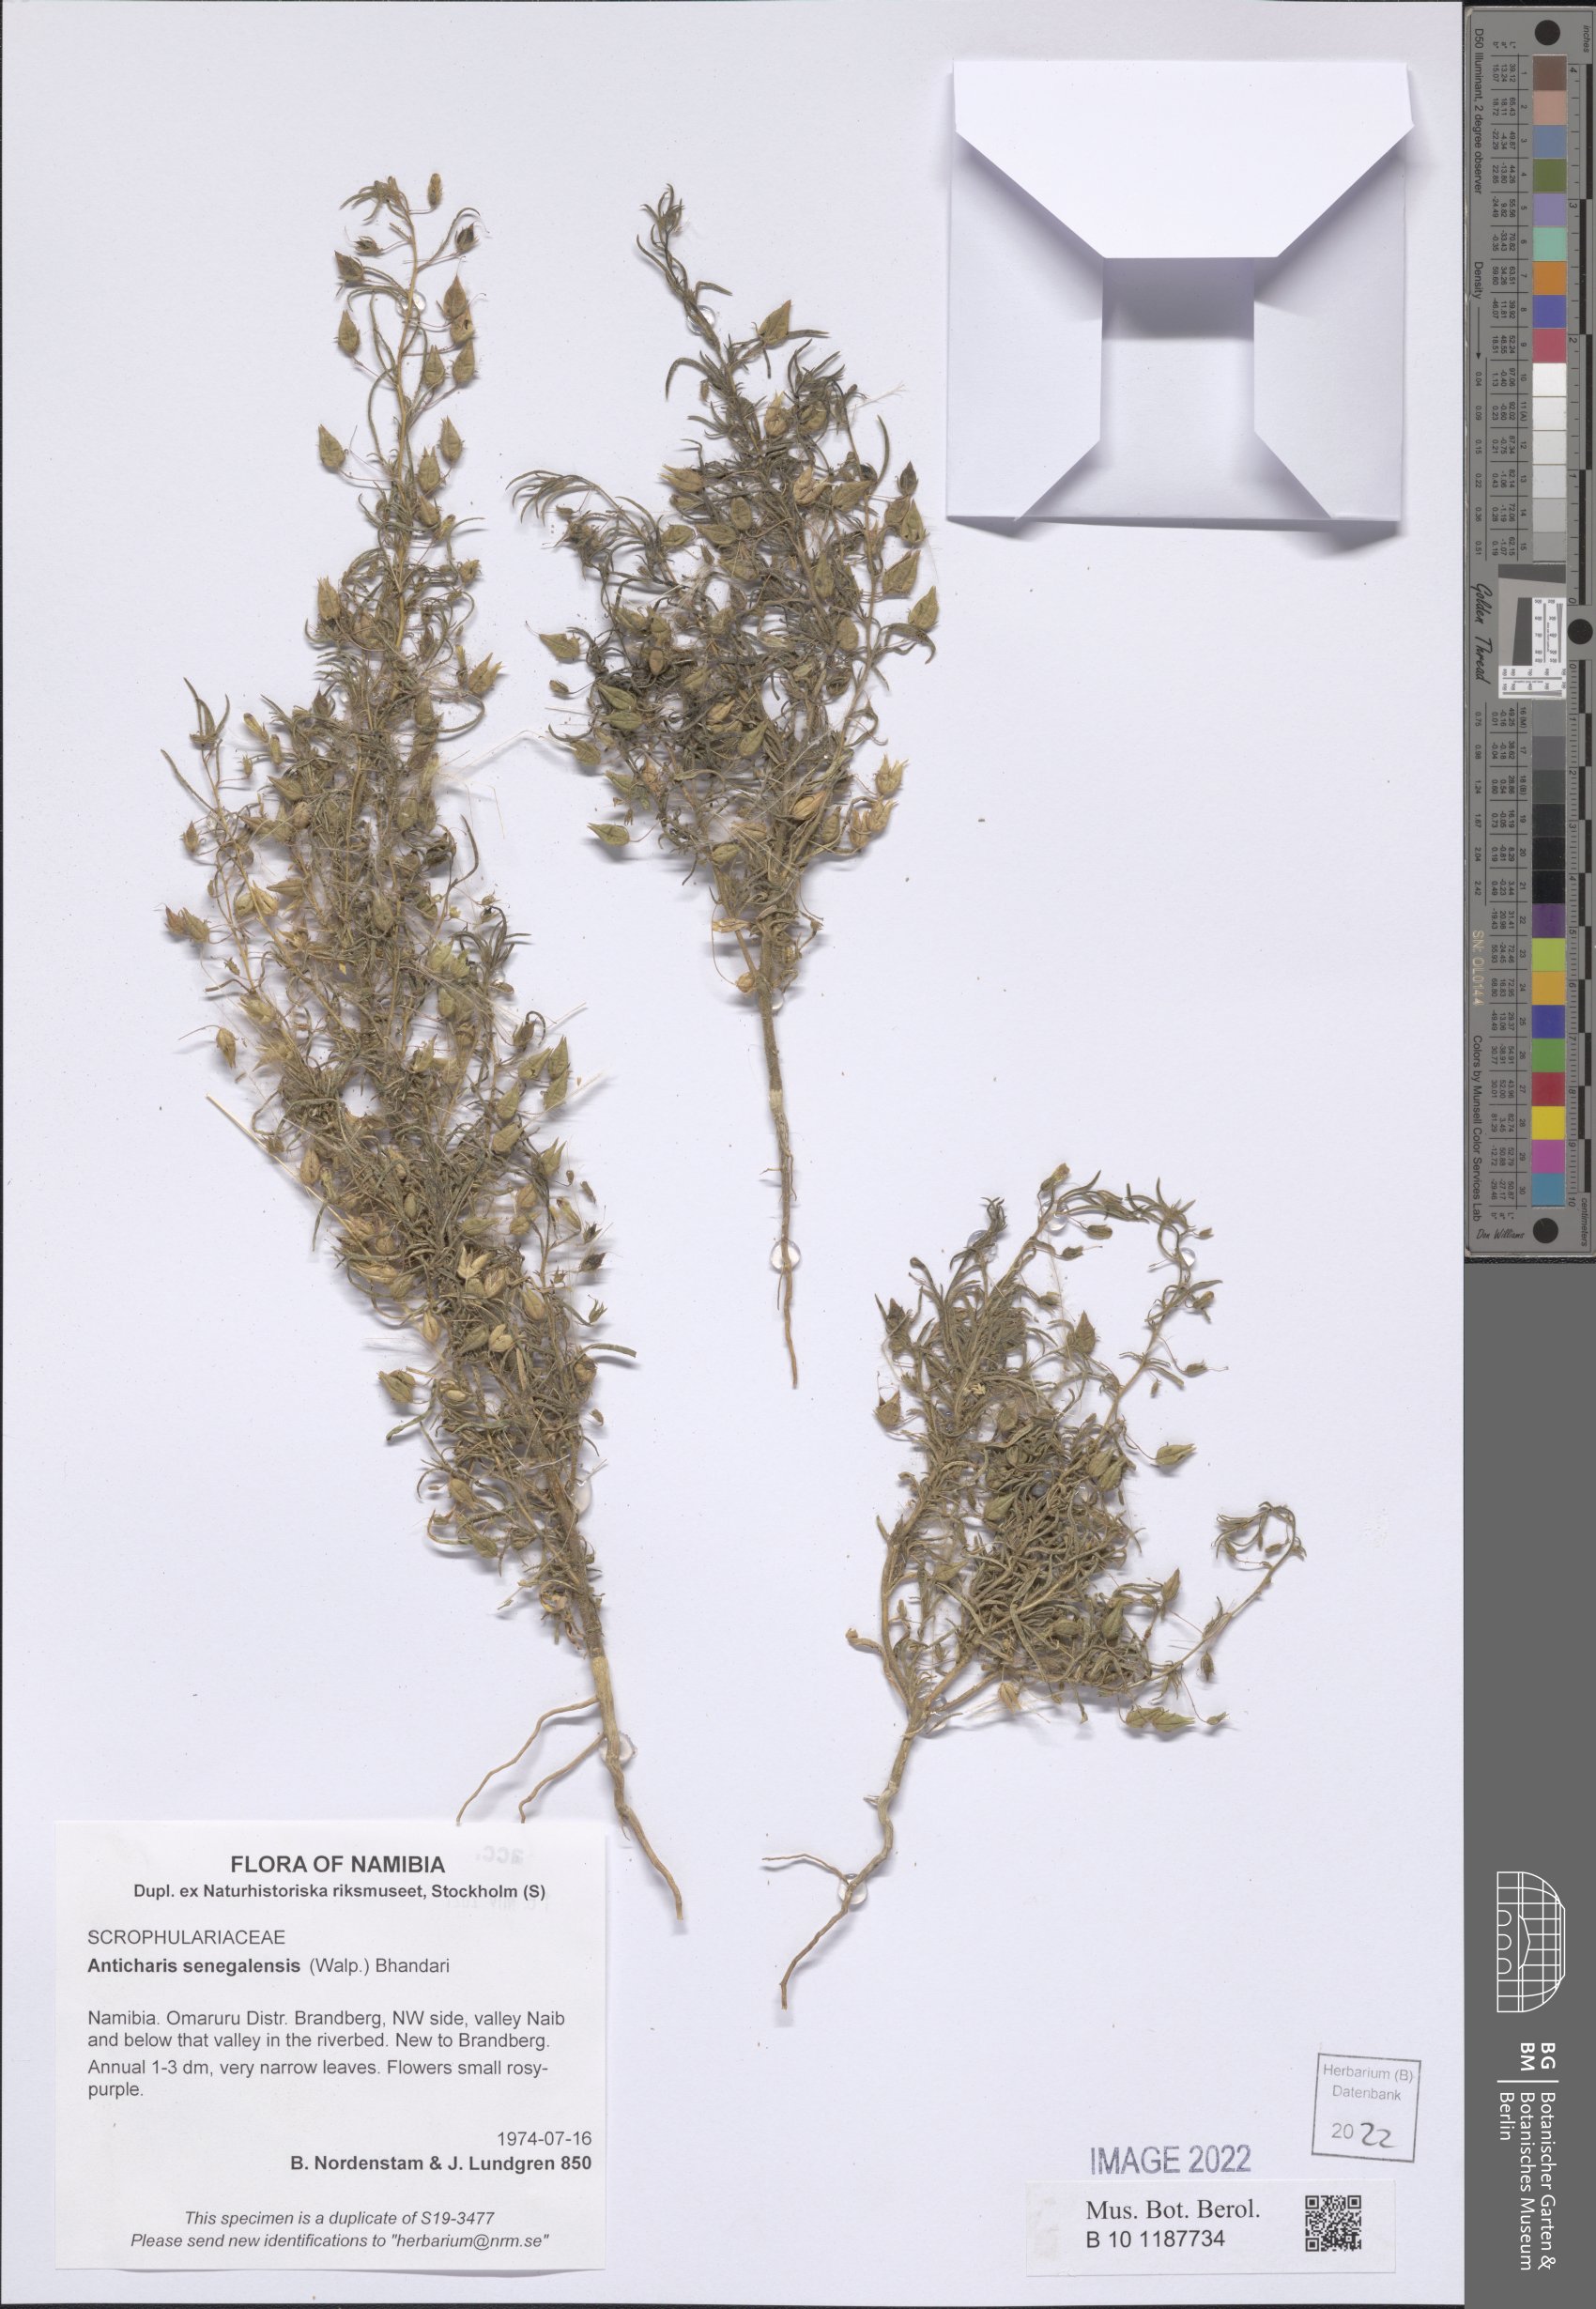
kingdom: Plantae
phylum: Tracheophyta
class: Magnoliopsida
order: Lamiales
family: Scrophulariaceae
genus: Anticharis
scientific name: Anticharis senegalensis
